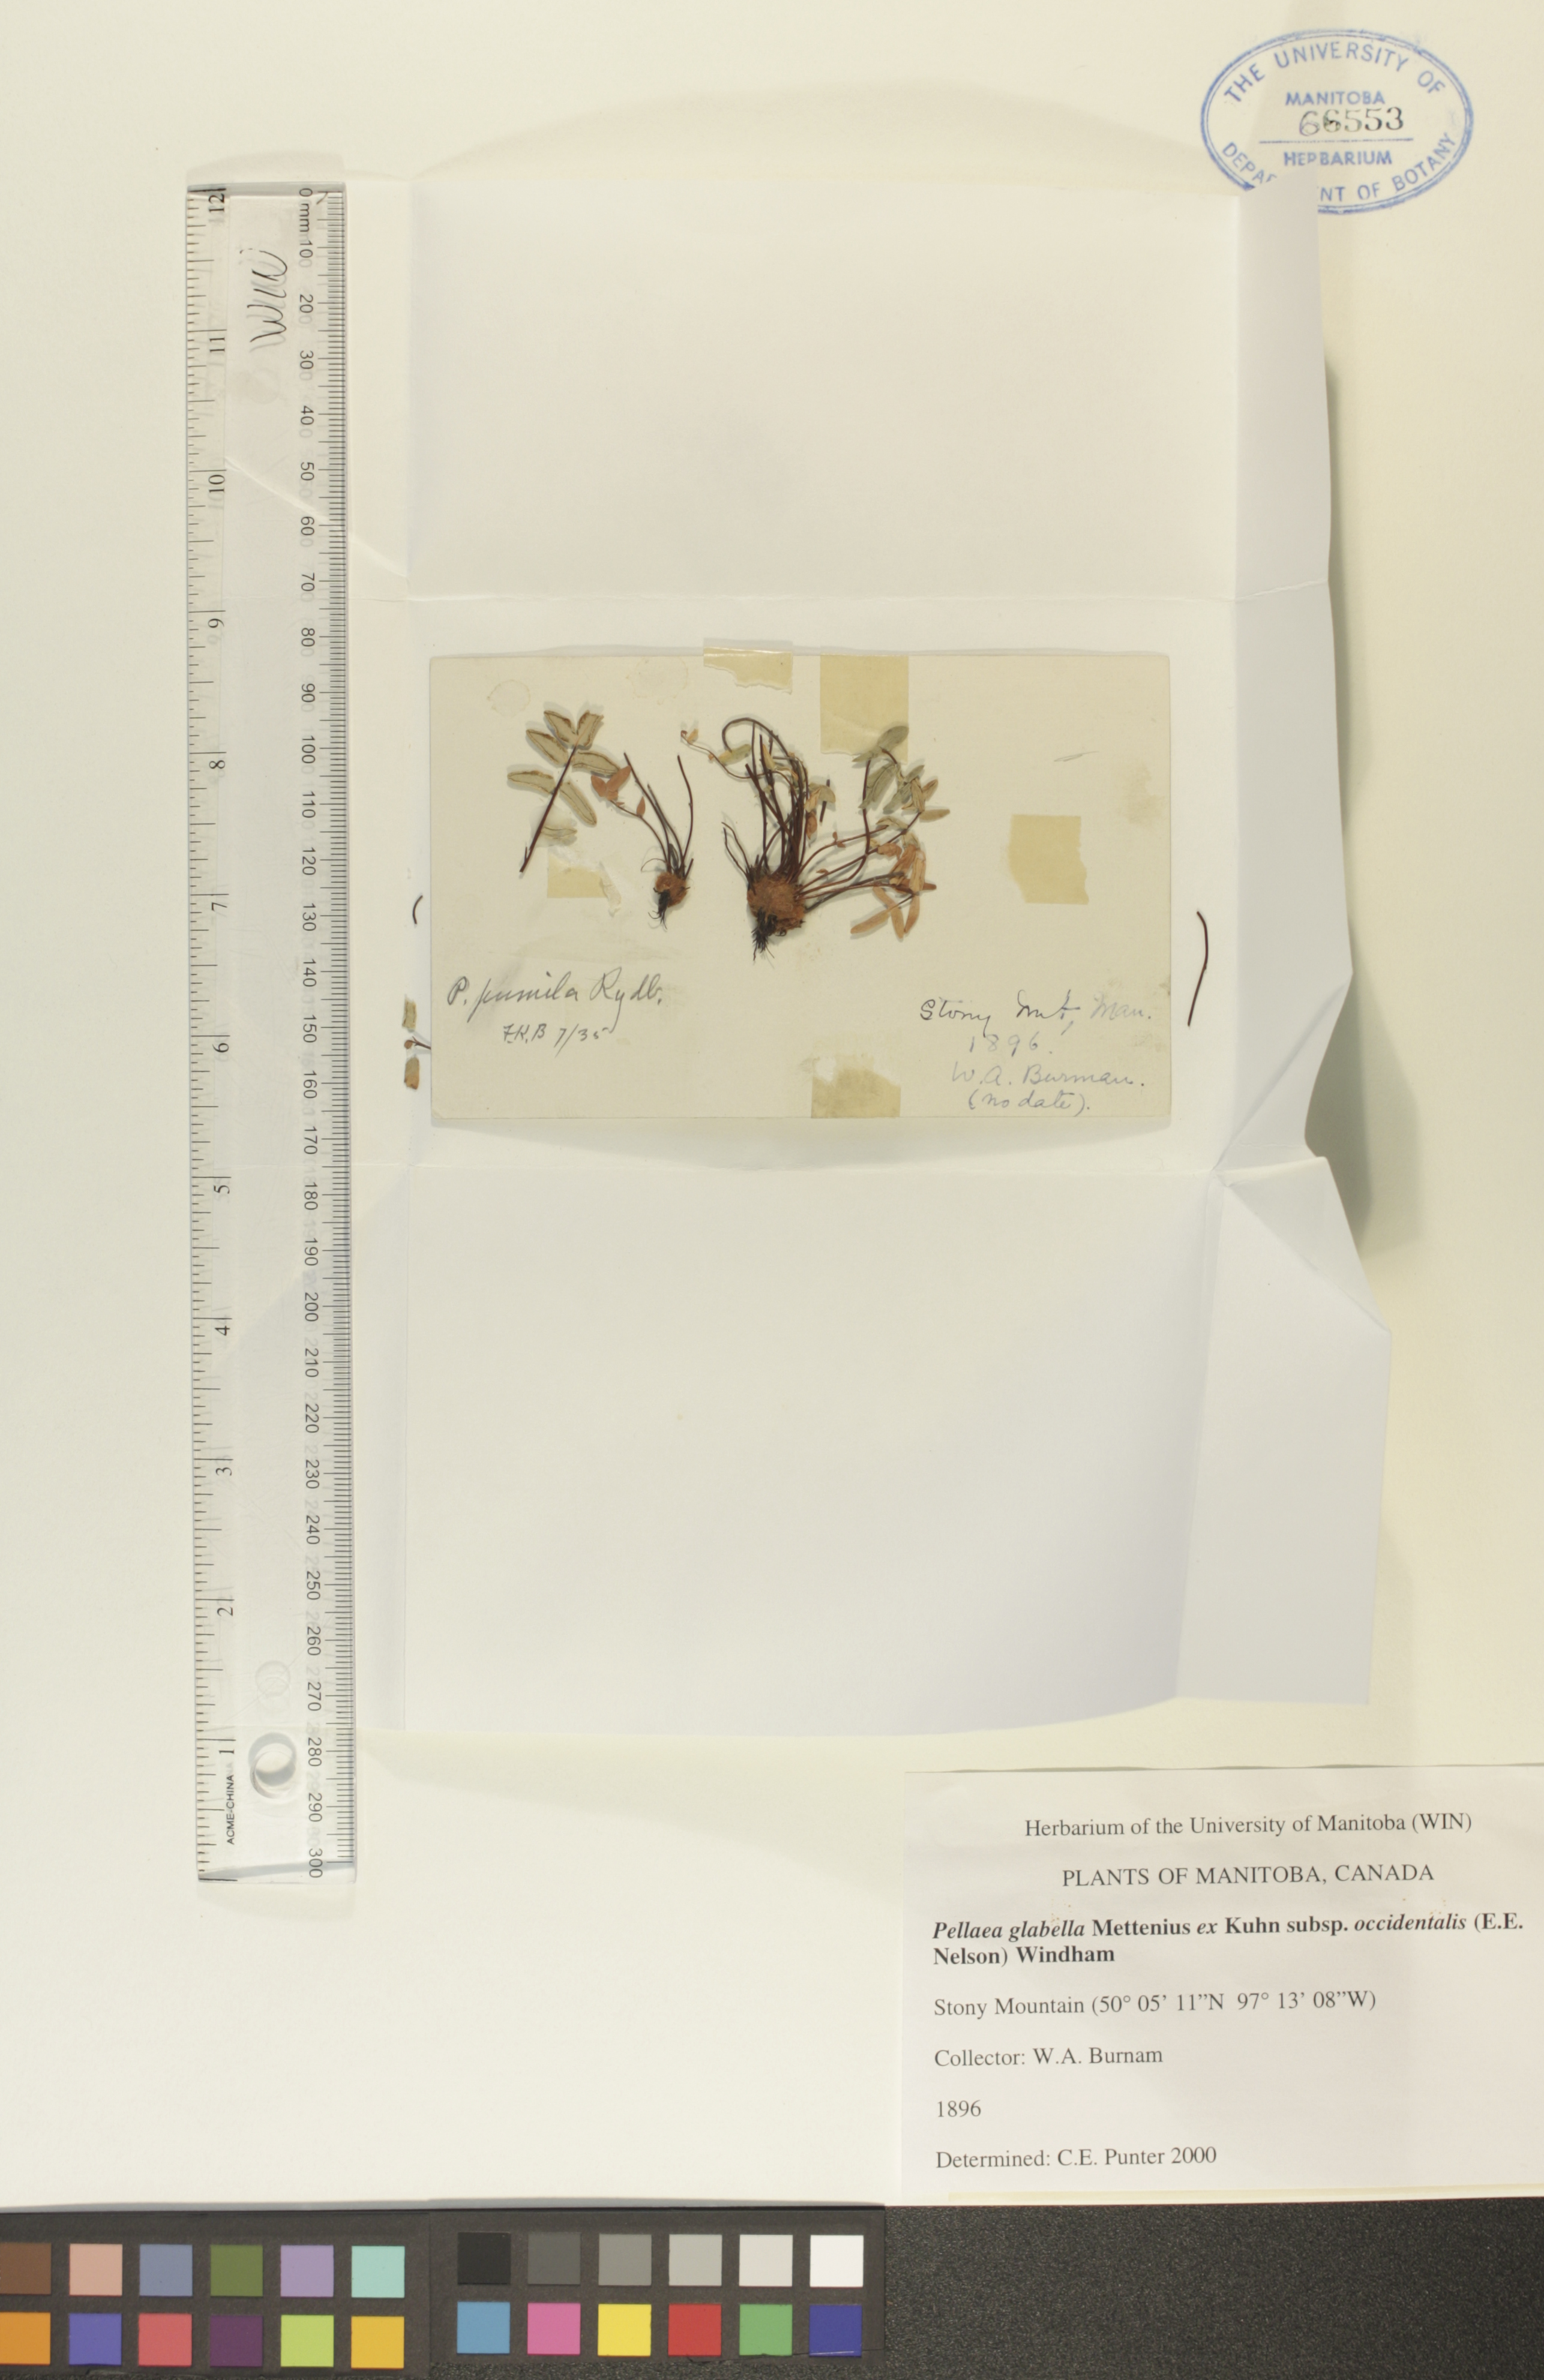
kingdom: Plantae
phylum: Tracheophyta
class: Polypodiopsida
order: Polypodiales
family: Pteridaceae
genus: Pellaea
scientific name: Pellaea glabella
